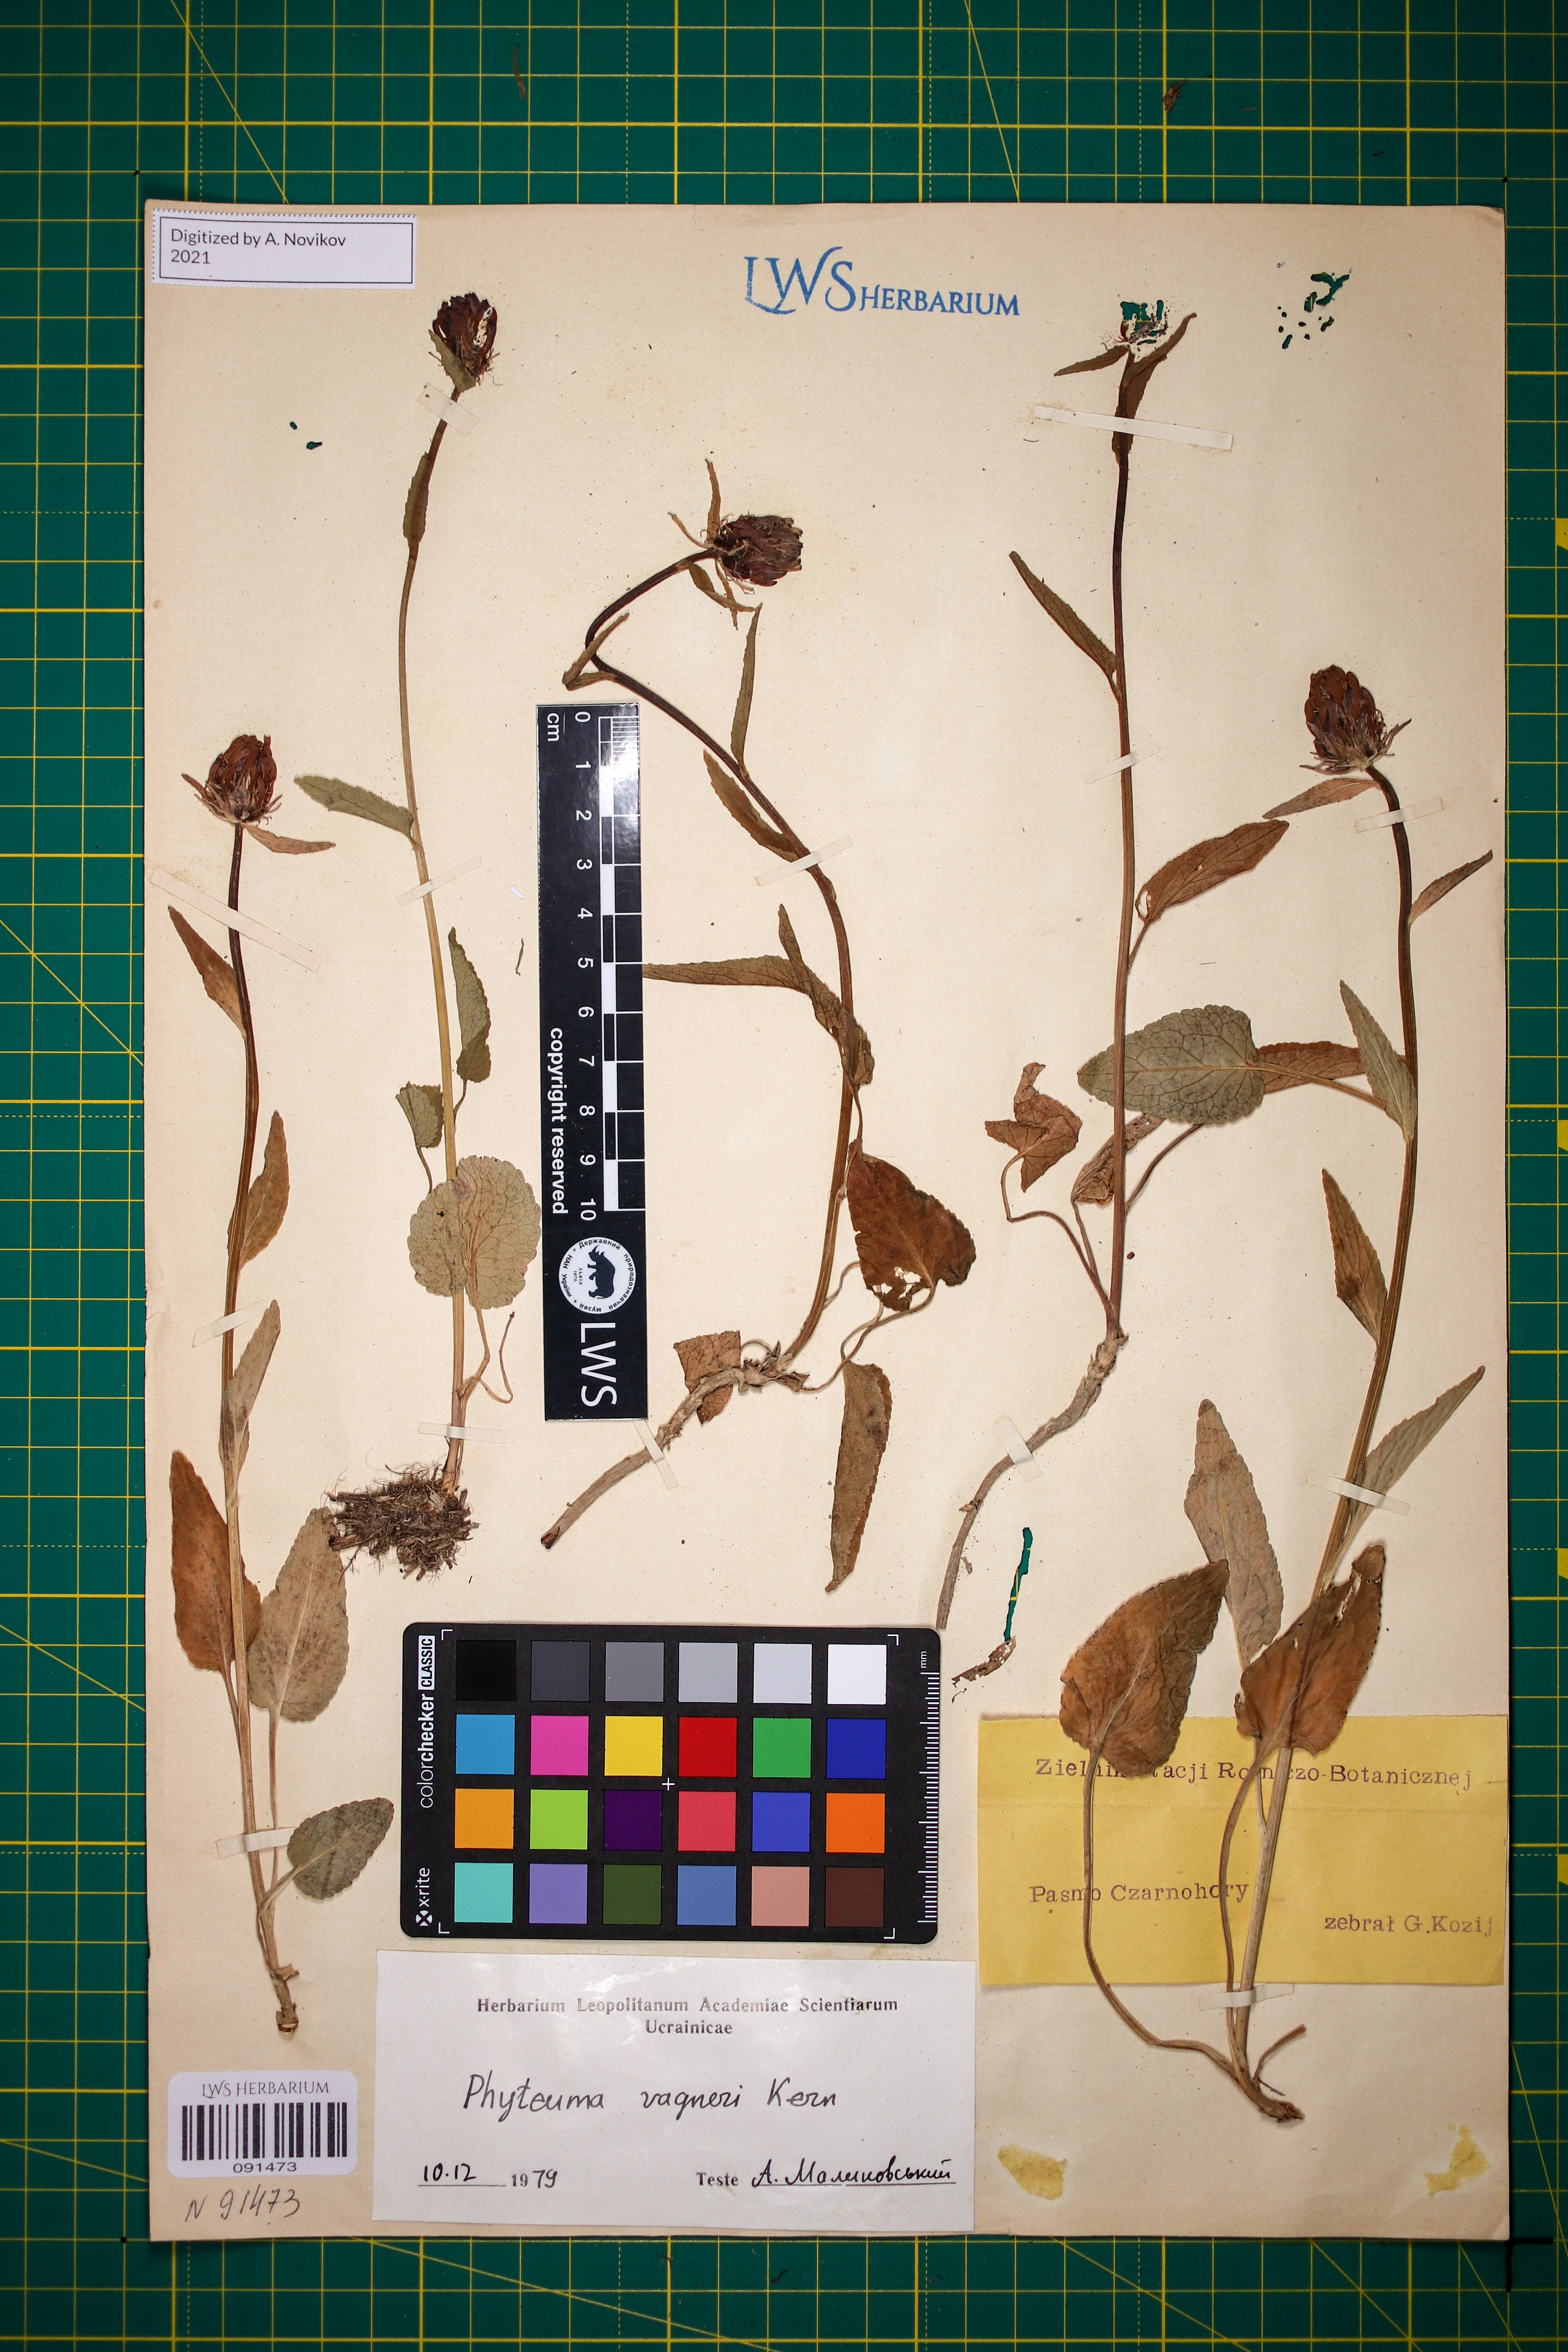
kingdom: Plantae
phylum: Tracheophyta
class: Magnoliopsida
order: Asterales
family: Campanulaceae
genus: Phyteuma
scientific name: Phyteuma vagneri
